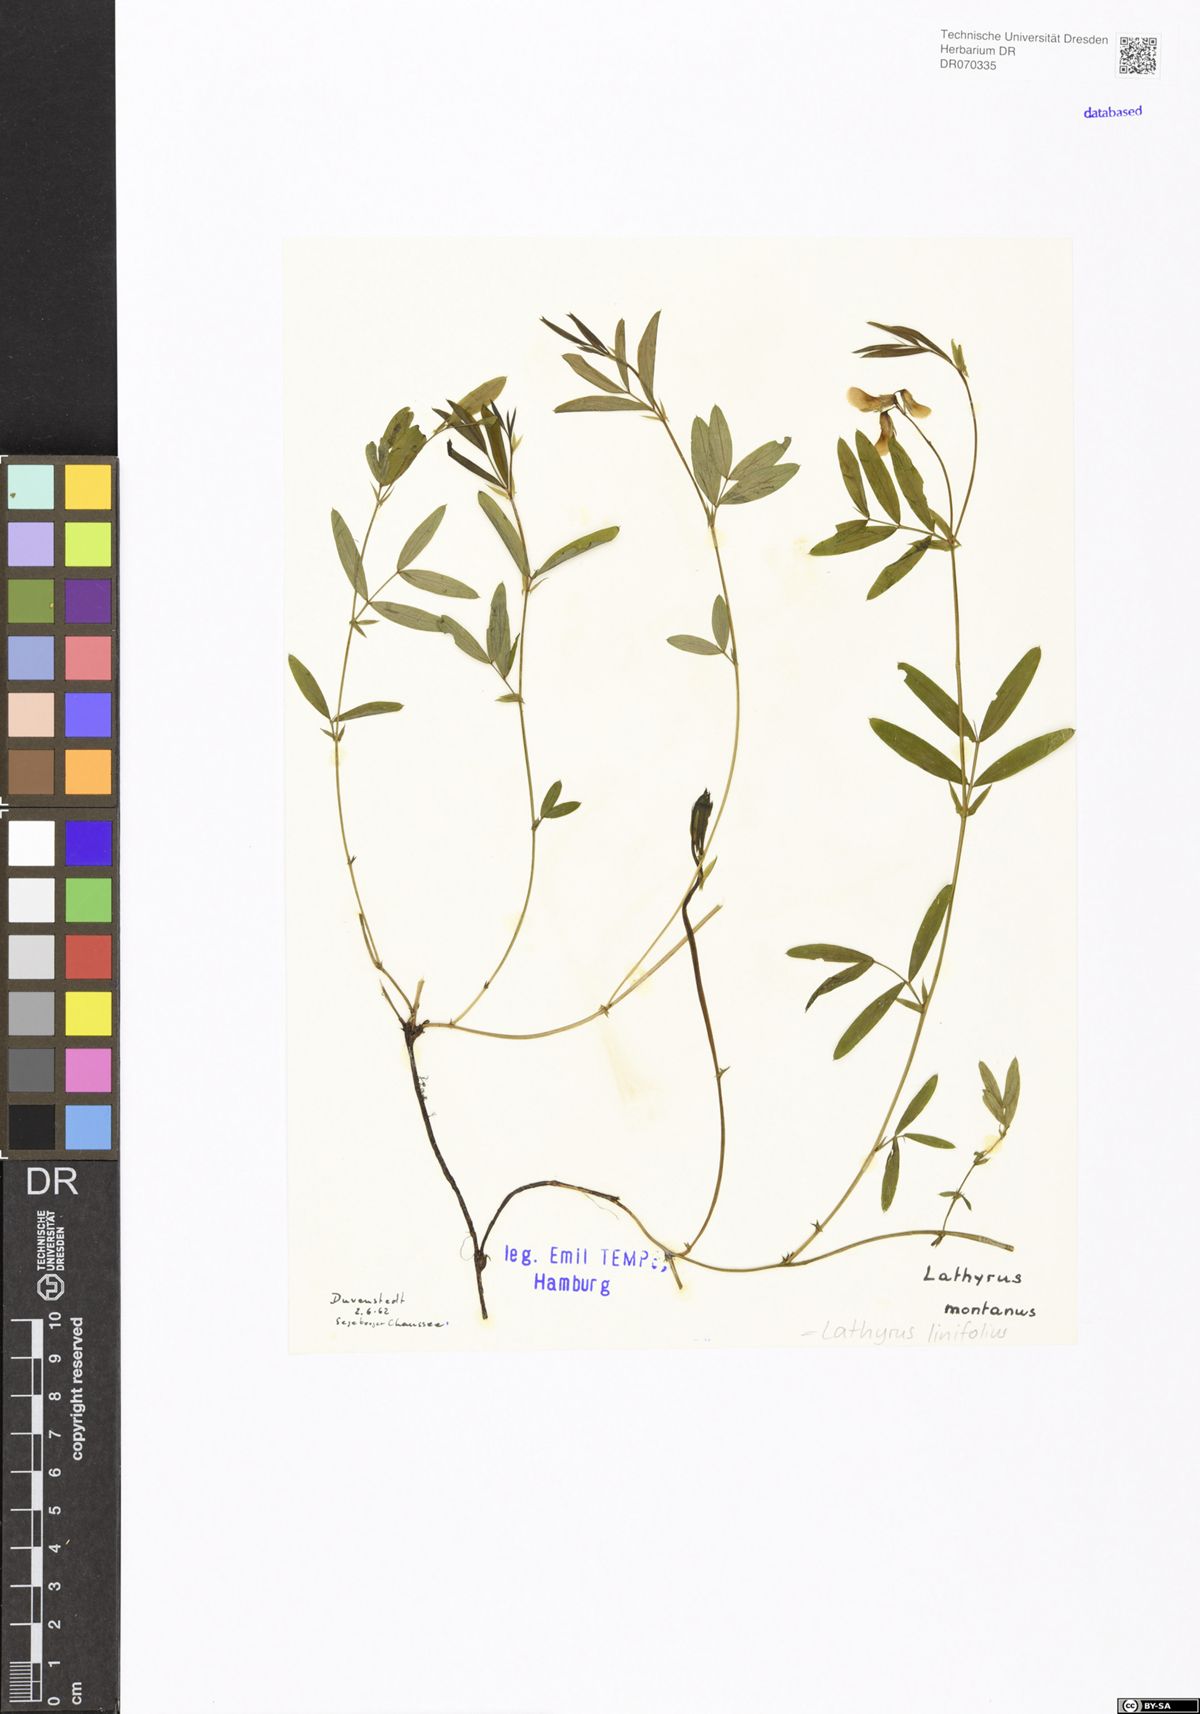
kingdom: Plantae
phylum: Tracheophyta
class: Magnoliopsida
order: Fabales
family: Fabaceae
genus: Lathyrus
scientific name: Lathyrus linifolius
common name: Bitter-vetch
